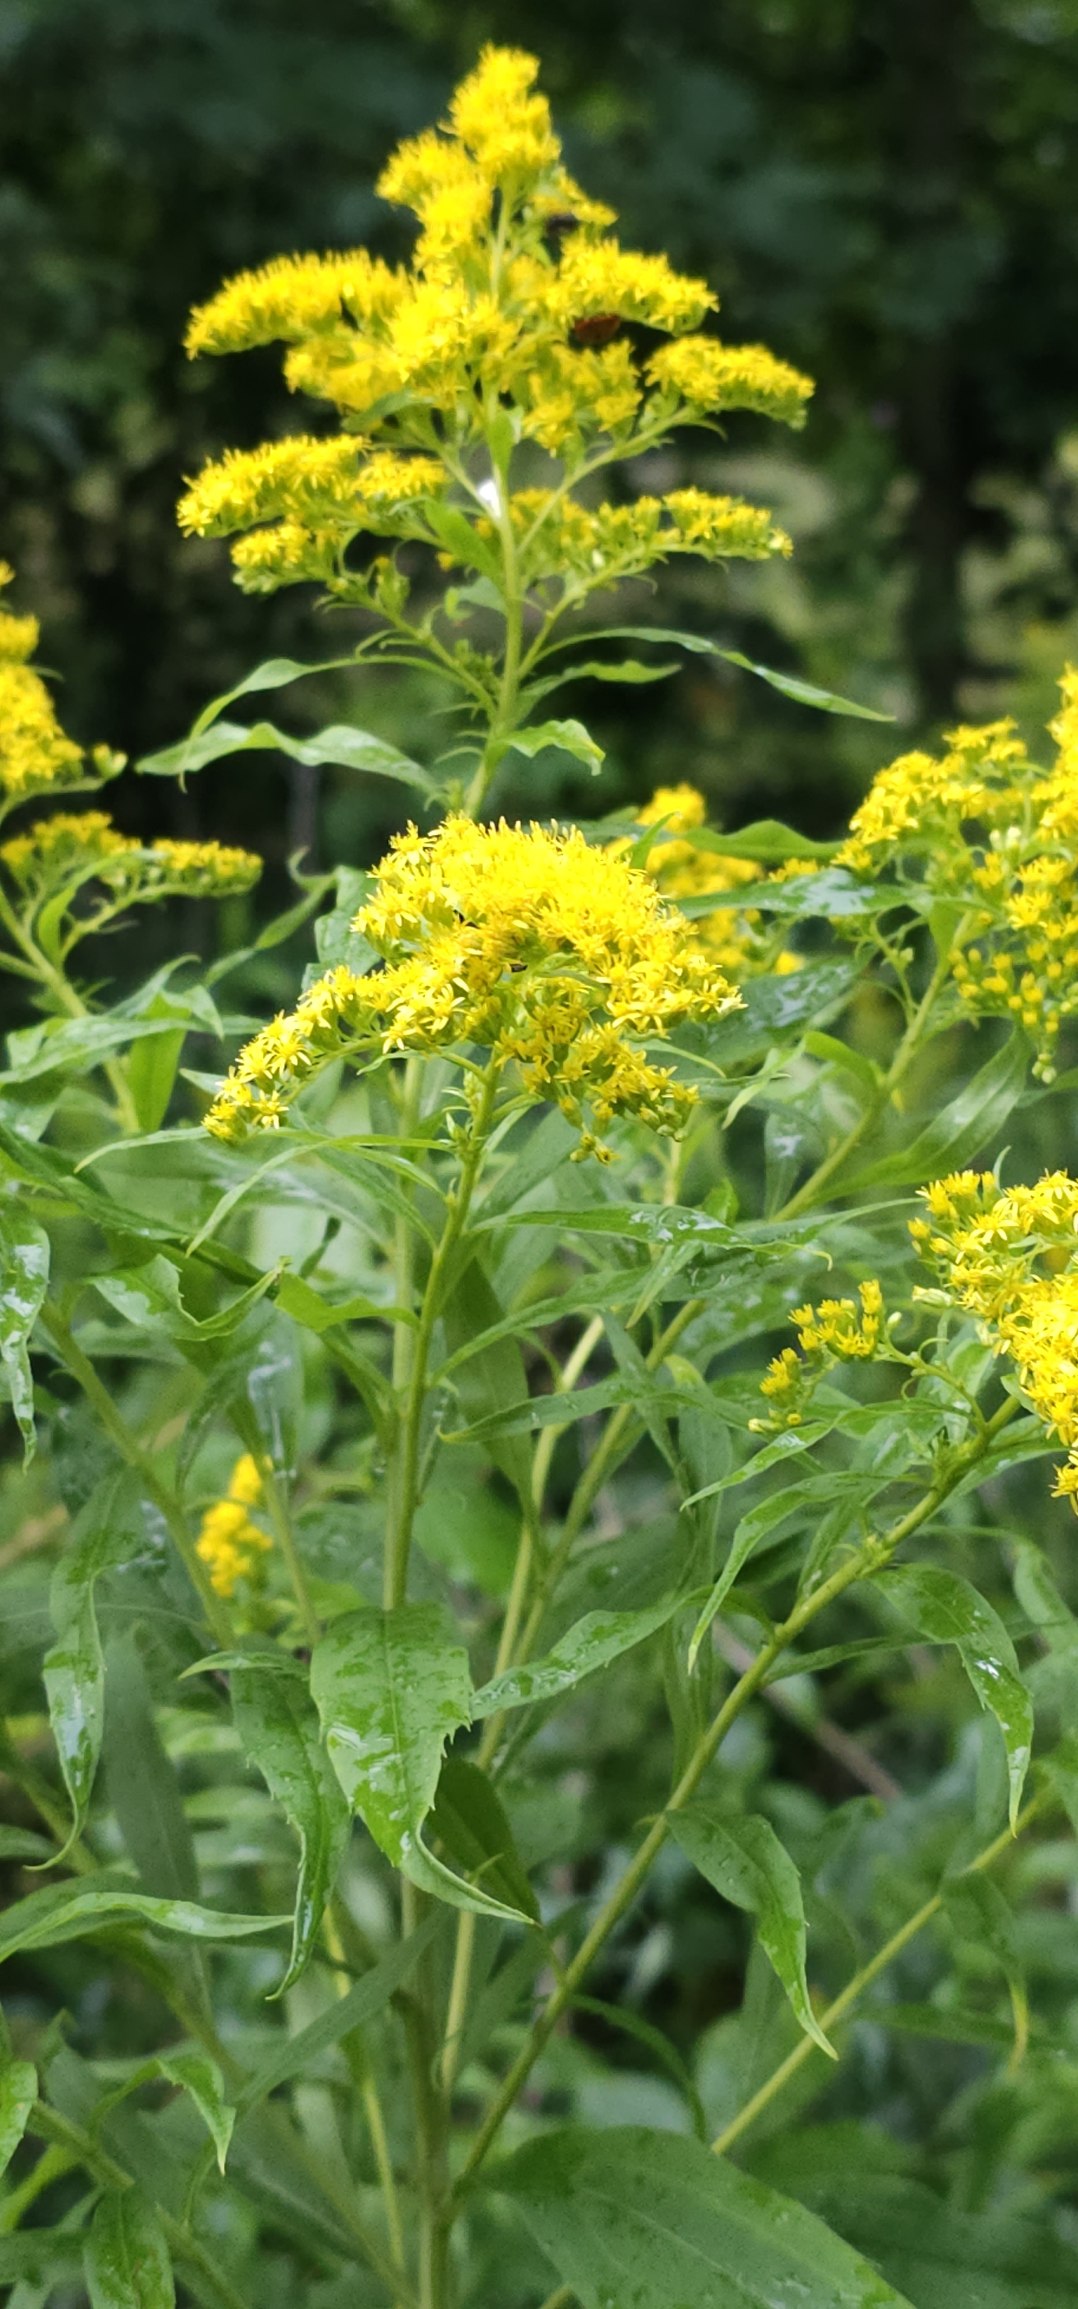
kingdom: Plantae
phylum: Tracheophyta
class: Magnoliopsida
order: Asterales
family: Asteraceae
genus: Solidago
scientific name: Solidago gigantea
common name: Sildig gyldenris
